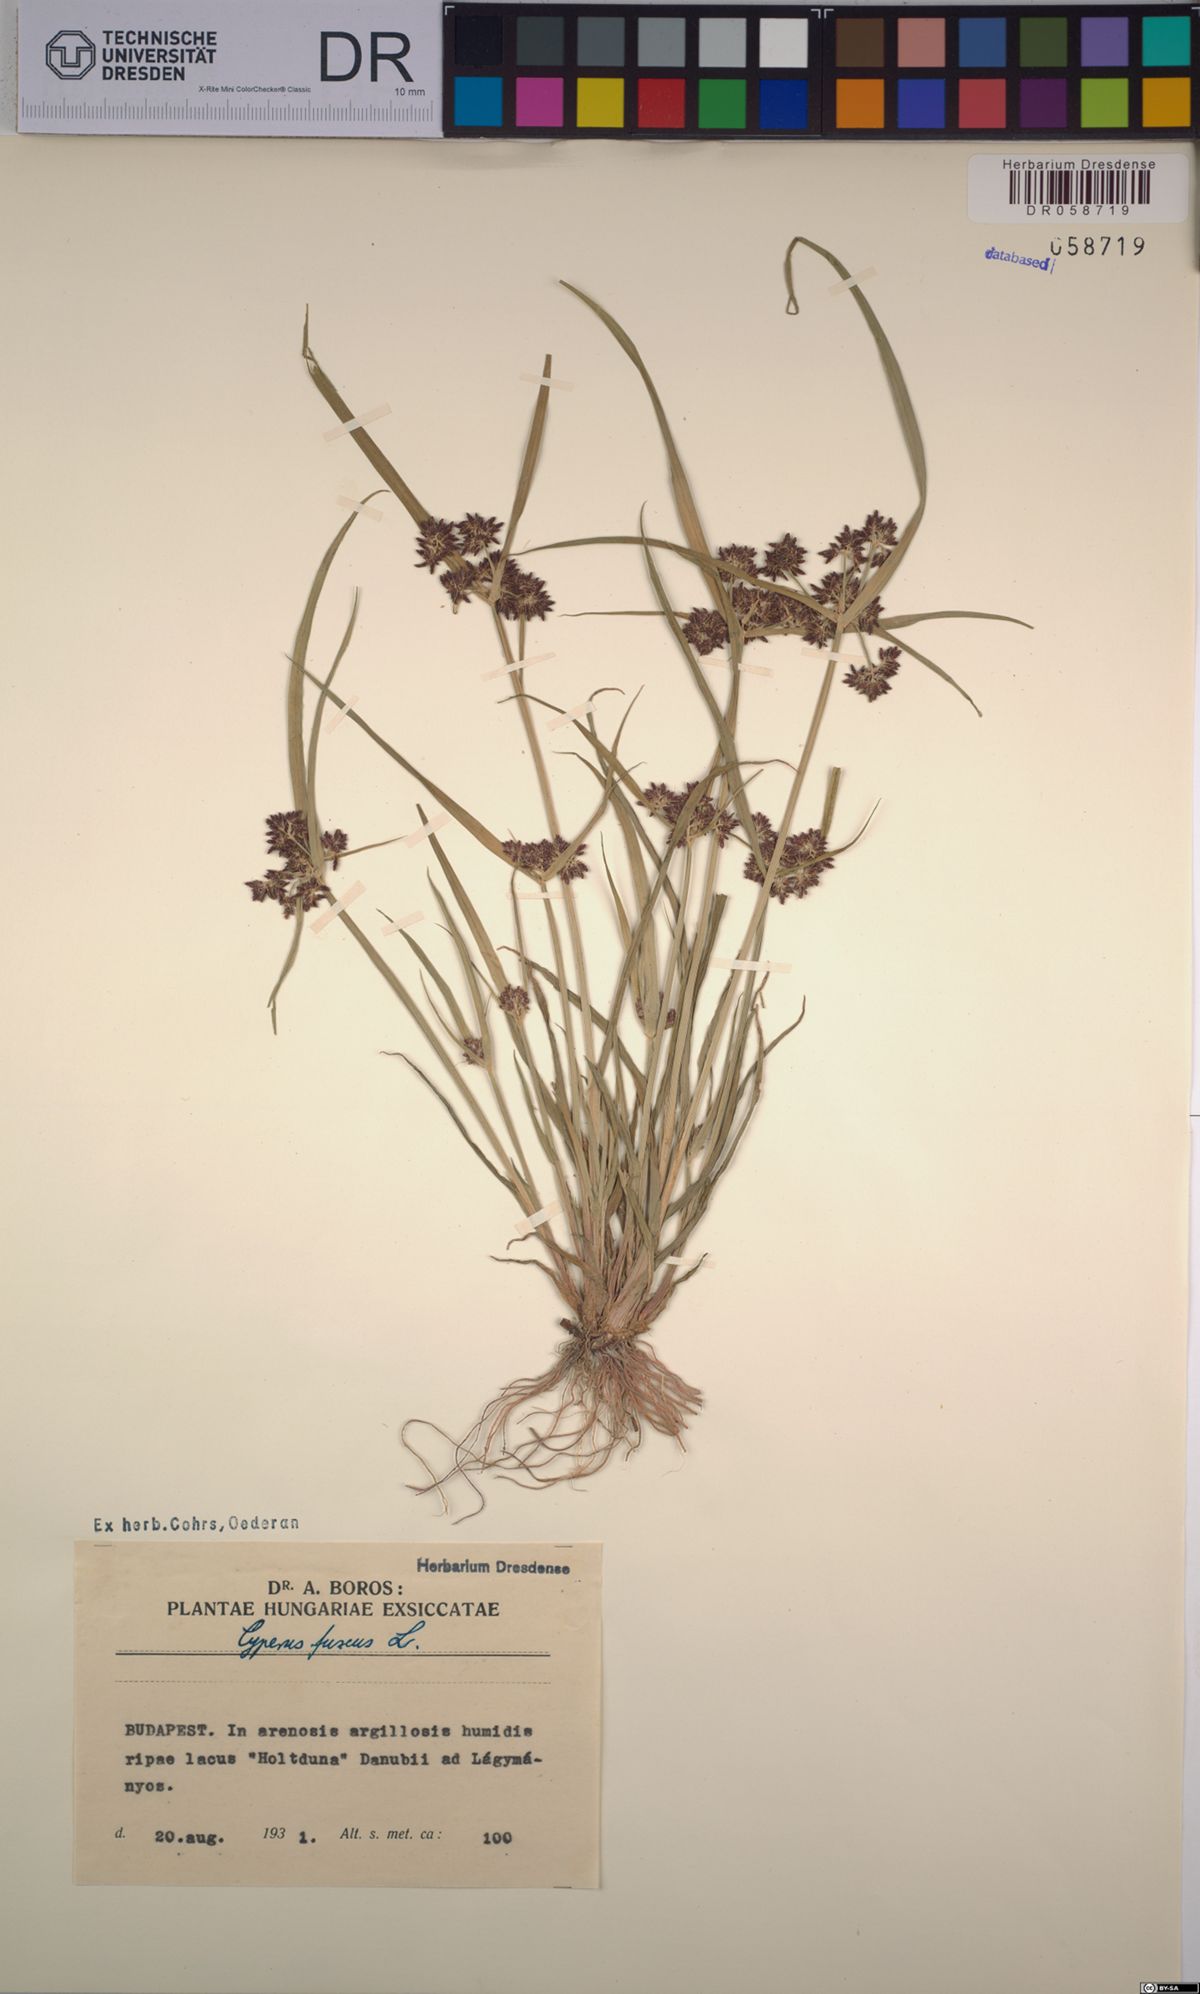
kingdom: Plantae
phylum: Tracheophyta
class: Liliopsida
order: Poales
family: Cyperaceae
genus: Cyperus
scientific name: Cyperus fuscus
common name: Brown galingale
